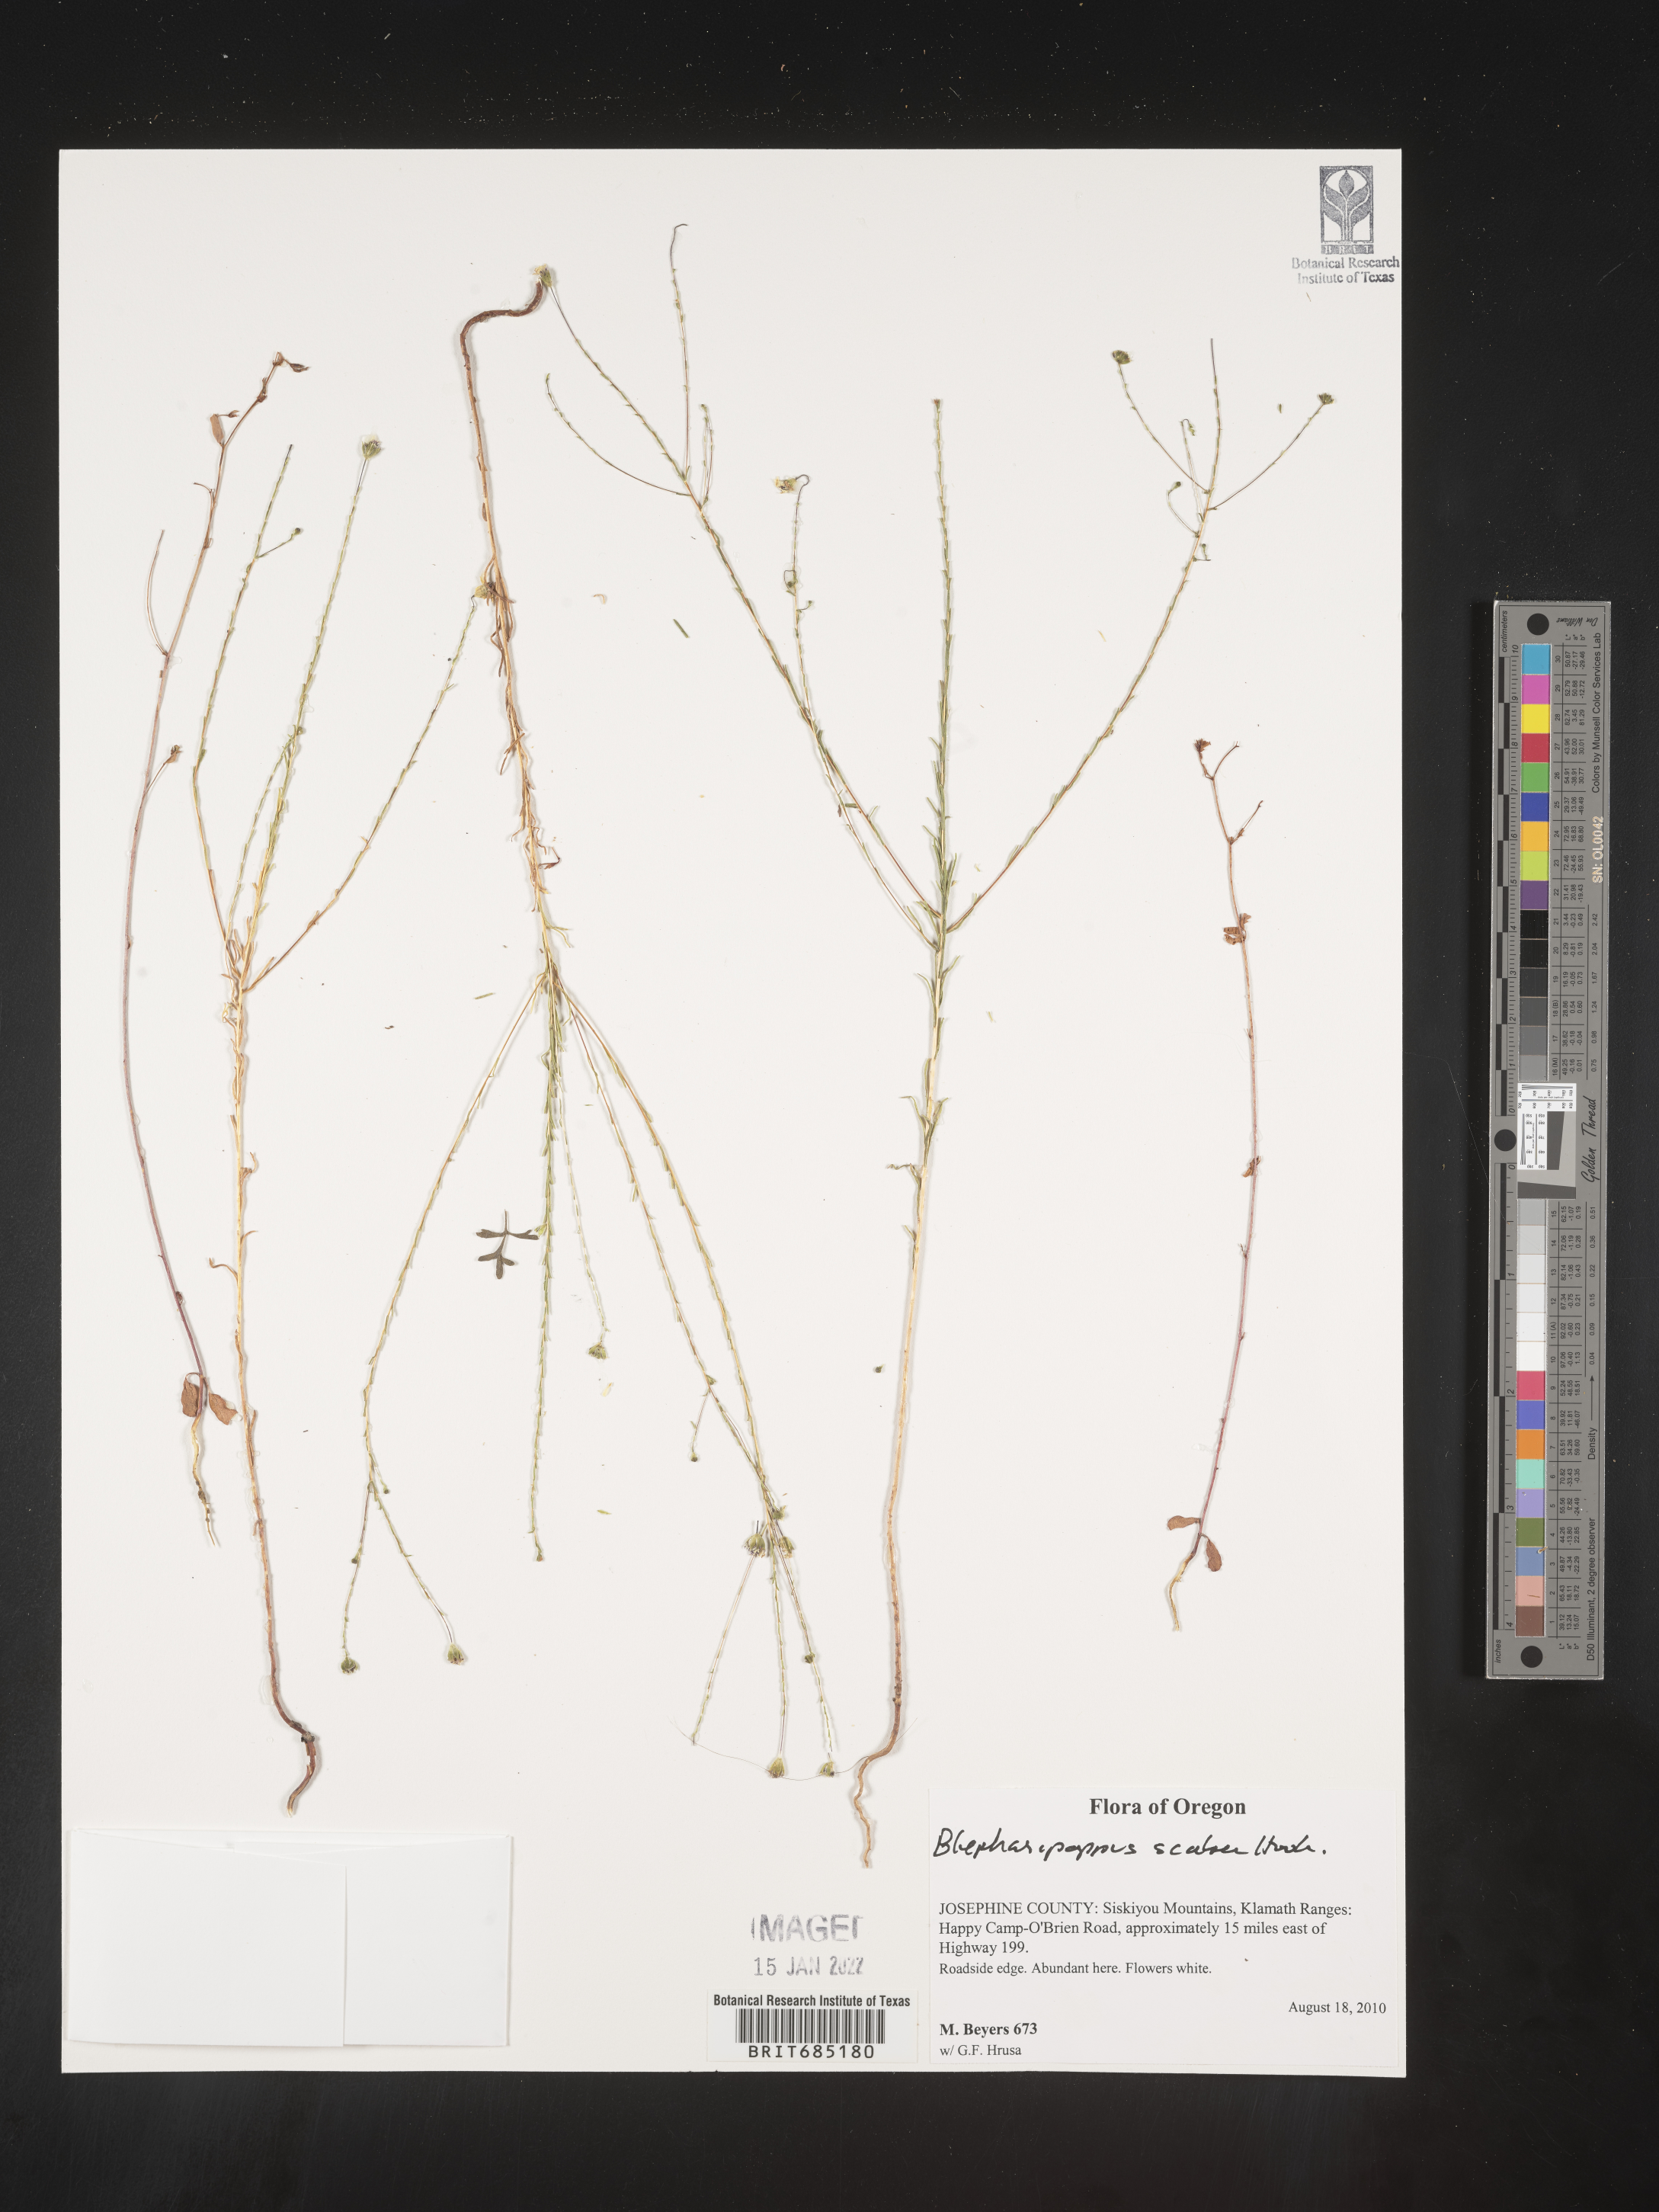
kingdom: Plantae
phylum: Tracheophyta
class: Magnoliopsida
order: Asterales
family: Asteraceae
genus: Blepharipappus
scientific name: Blepharipappus
